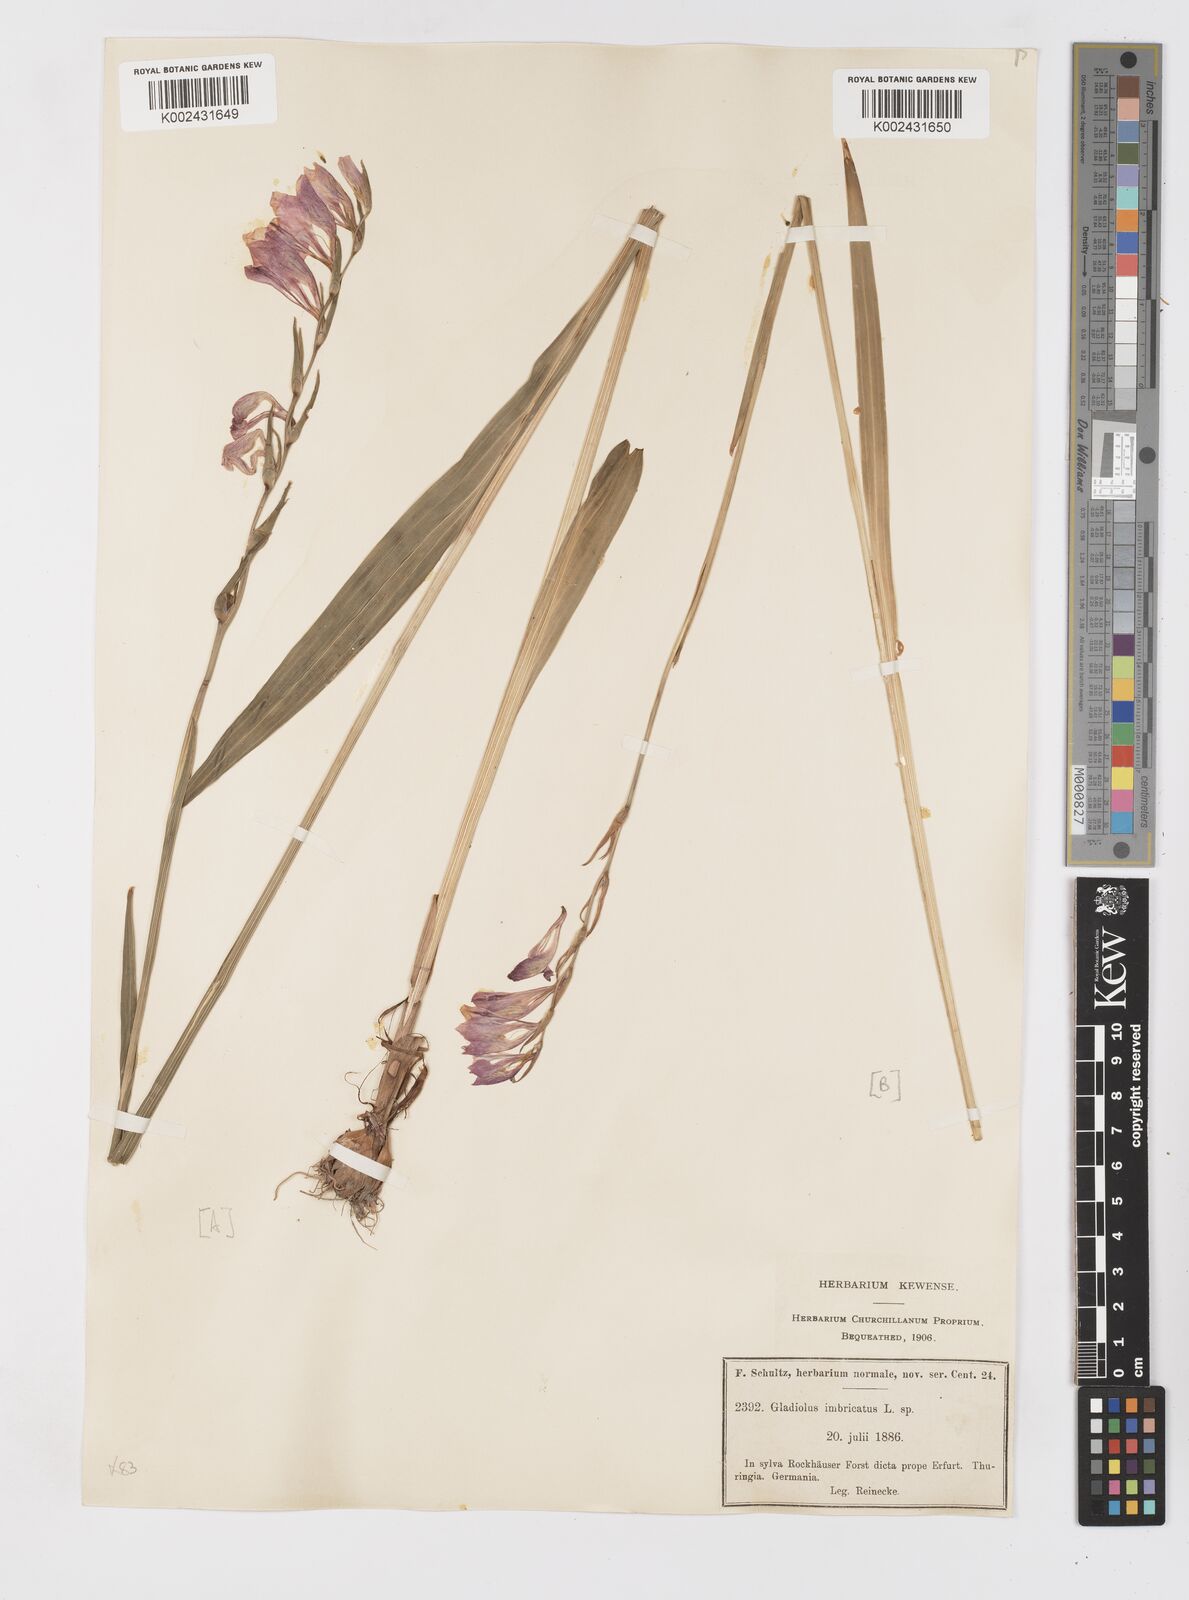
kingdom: Plantae
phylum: Tracheophyta
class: Liliopsida
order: Asparagales
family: Iridaceae
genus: Gladiolus
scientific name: Gladiolus imbricatus
